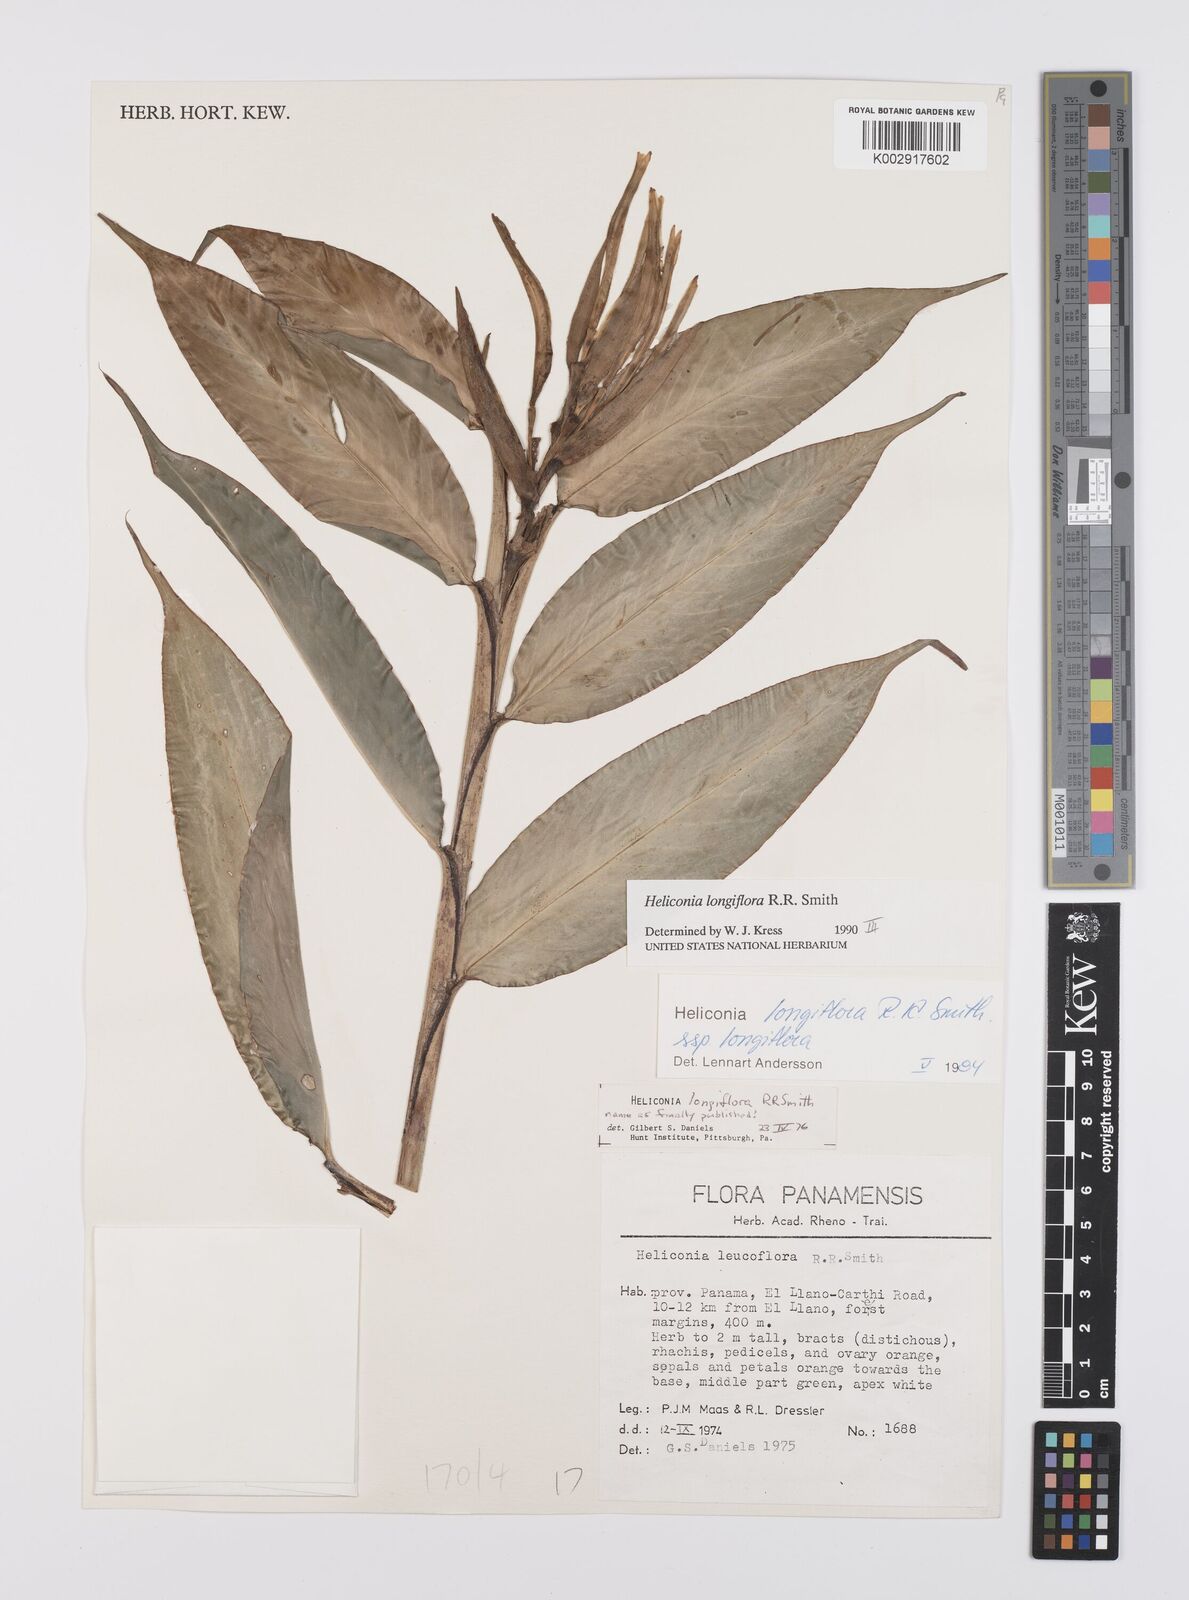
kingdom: Plantae
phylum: Tracheophyta
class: Liliopsida
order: Zingiberales
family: Heliconiaceae
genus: Heliconia
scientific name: Heliconia longiflora
